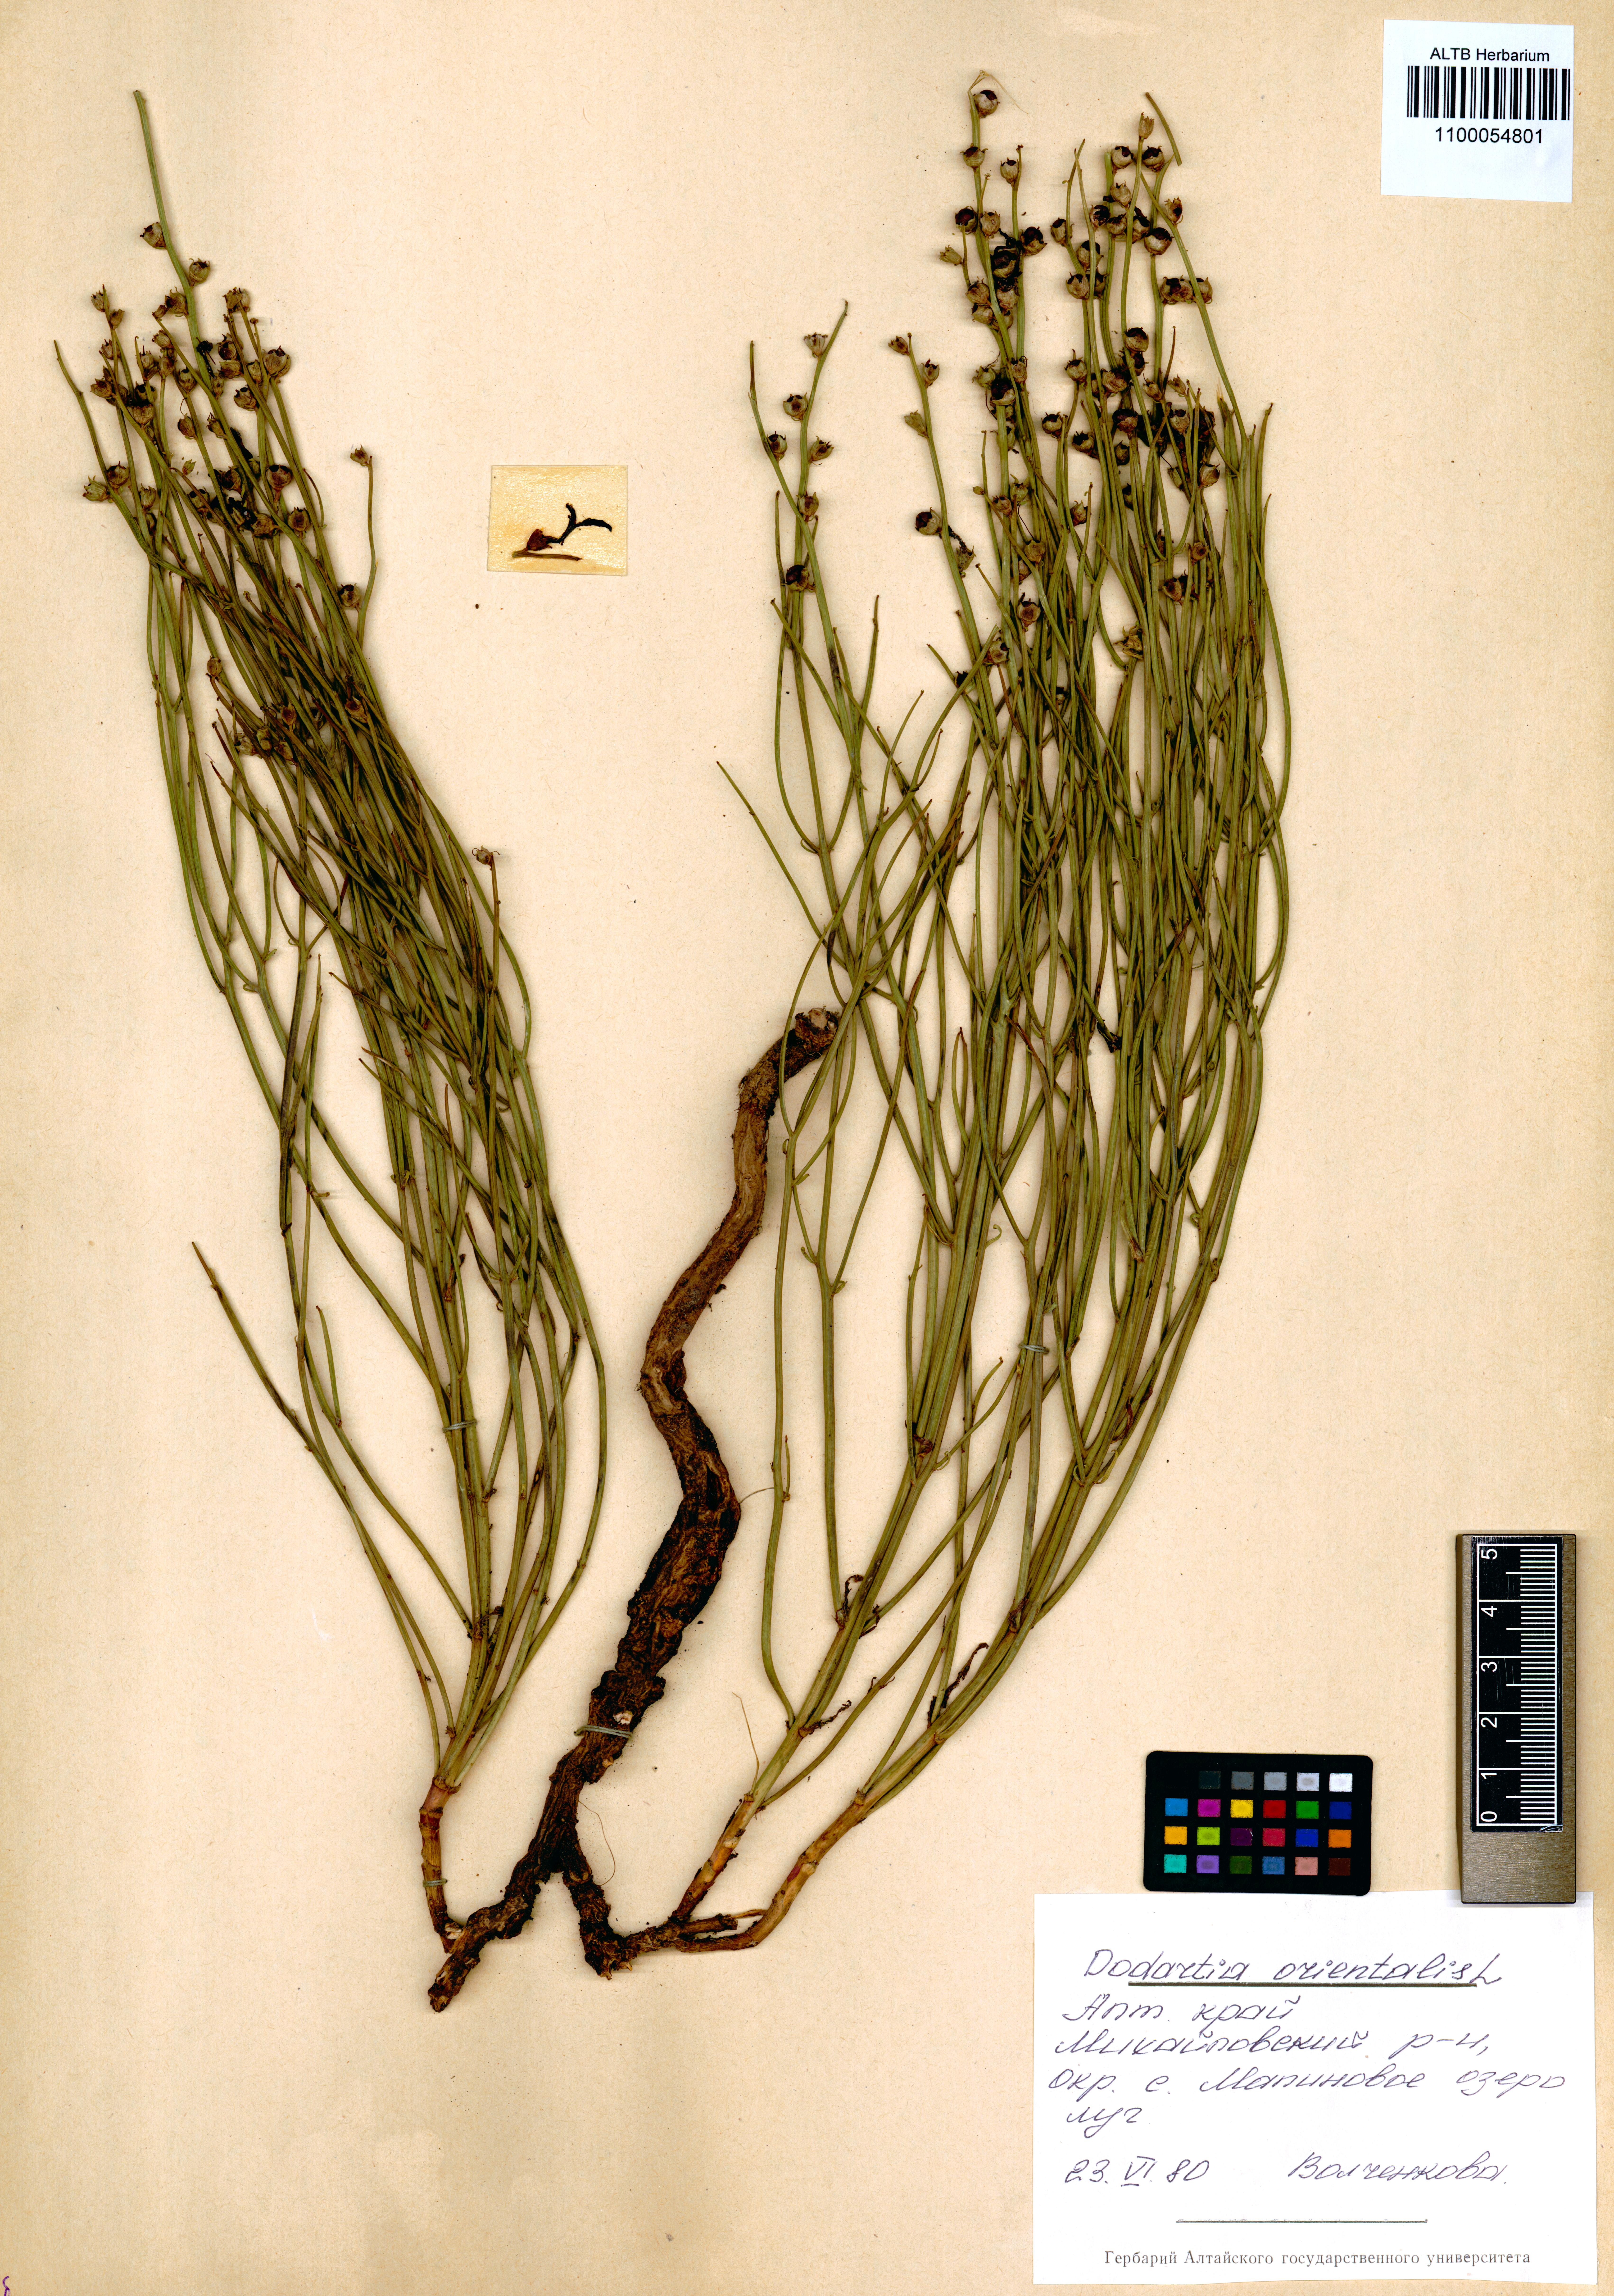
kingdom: Plantae
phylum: Tracheophyta
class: Magnoliopsida
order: Lamiales
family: Mazaceae
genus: Dodartia
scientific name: Dodartia orientalis
